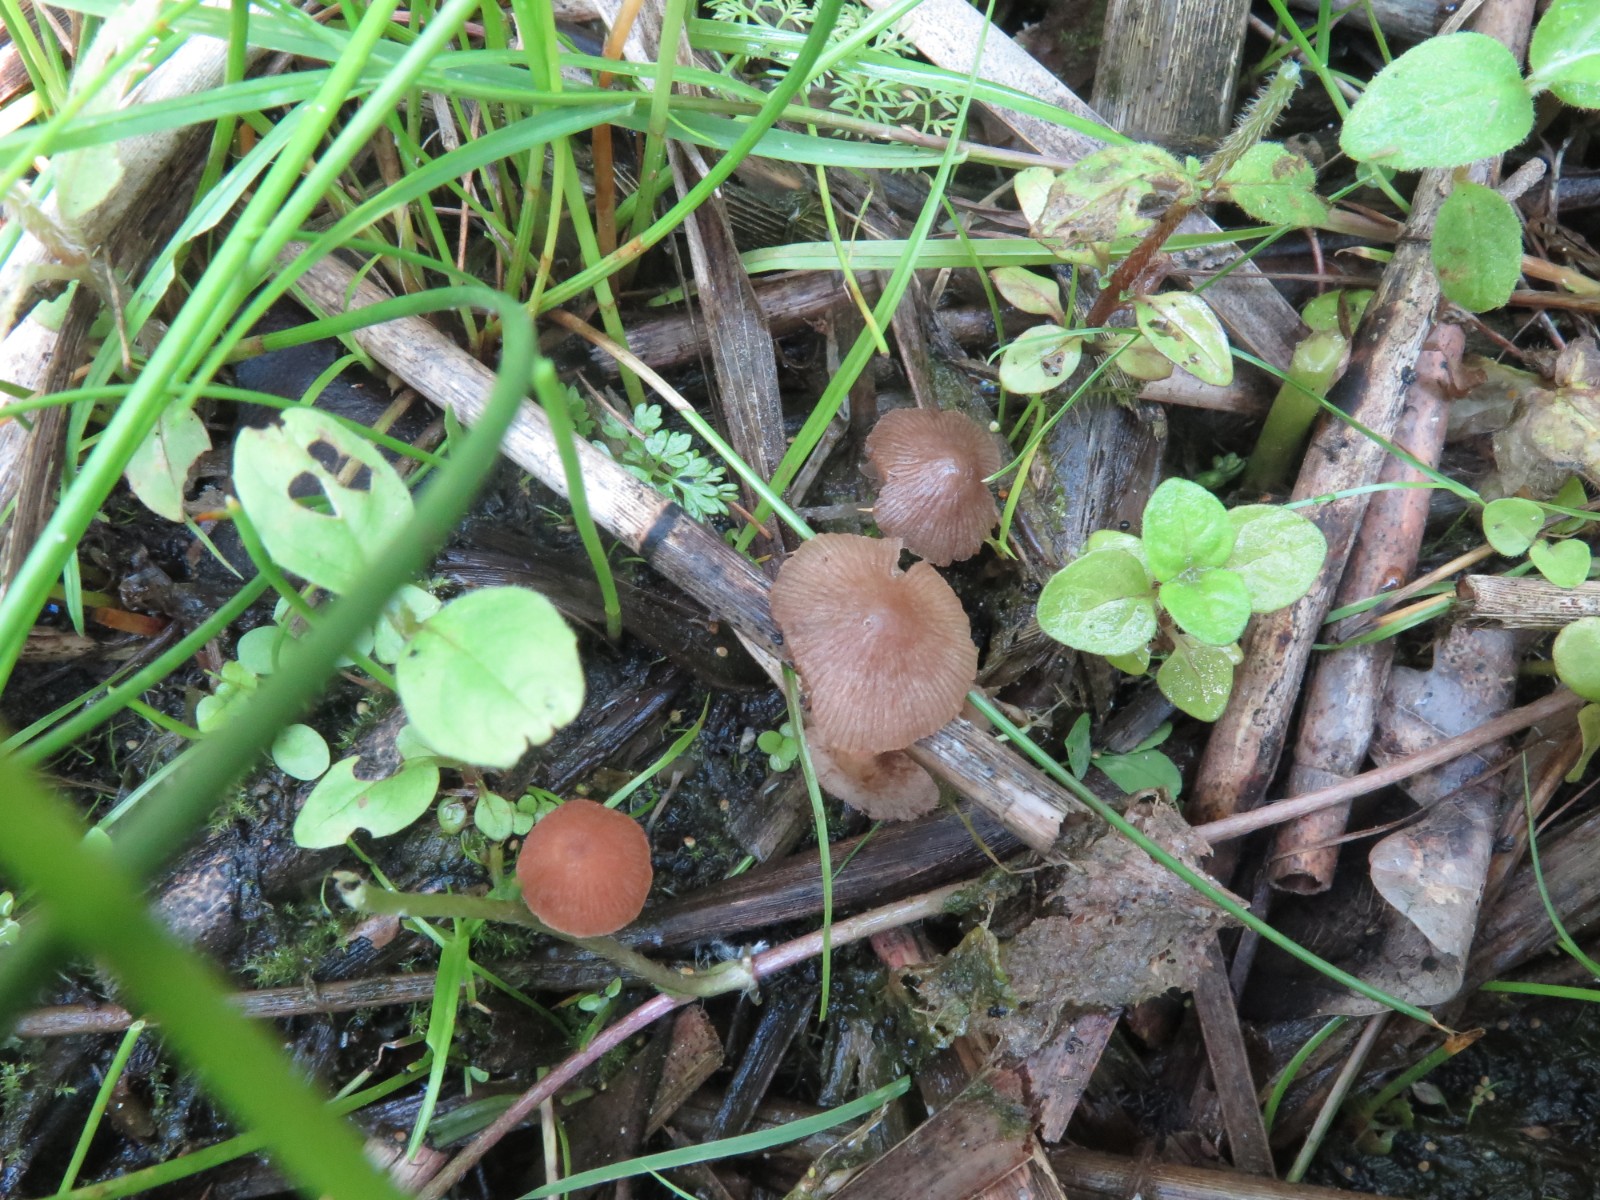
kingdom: Fungi
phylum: Basidiomycota
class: Agaricomycetes
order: Agaricales
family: Psathyrellaceae
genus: Candolleomyces
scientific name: Candolleomyces typhae
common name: dunhammer-mørkhat
